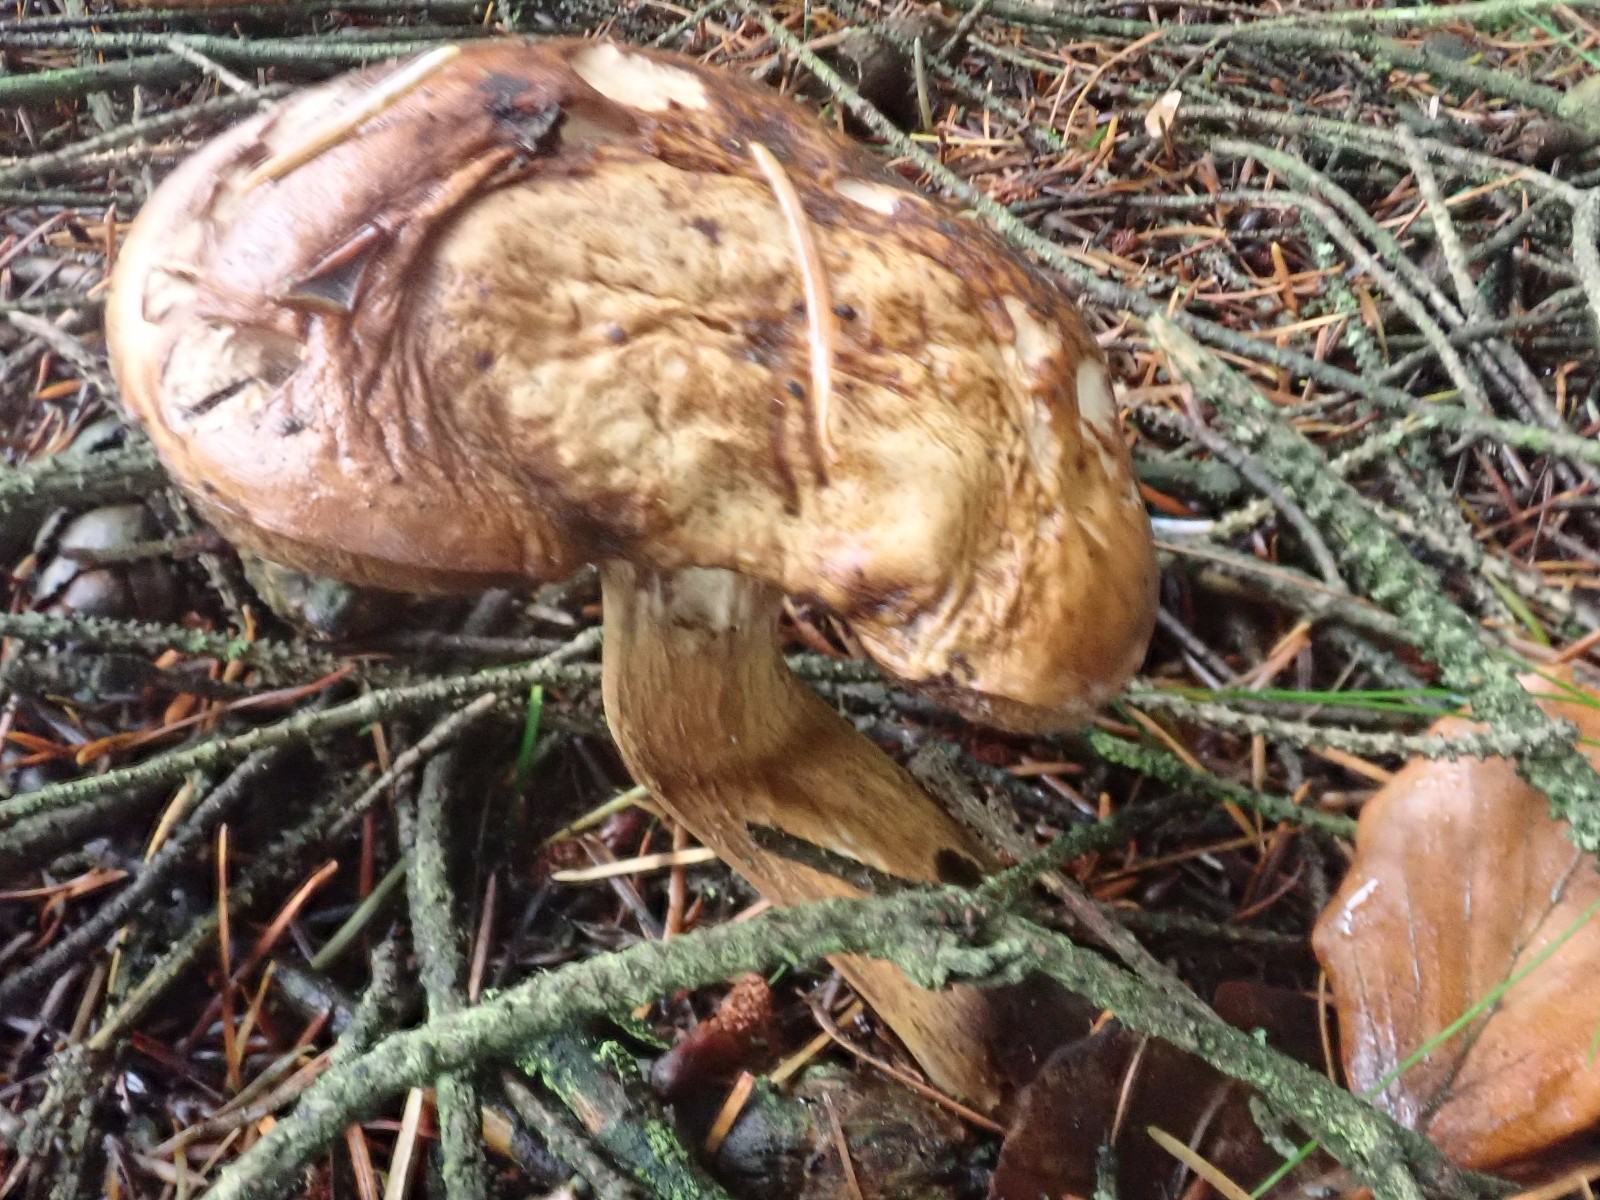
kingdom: Fungi
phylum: Basidiomycota
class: Agaricomycetes
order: Boletales
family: Boletaceae
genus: Imleria
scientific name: Imleria badia
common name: brunstokket rørhat
